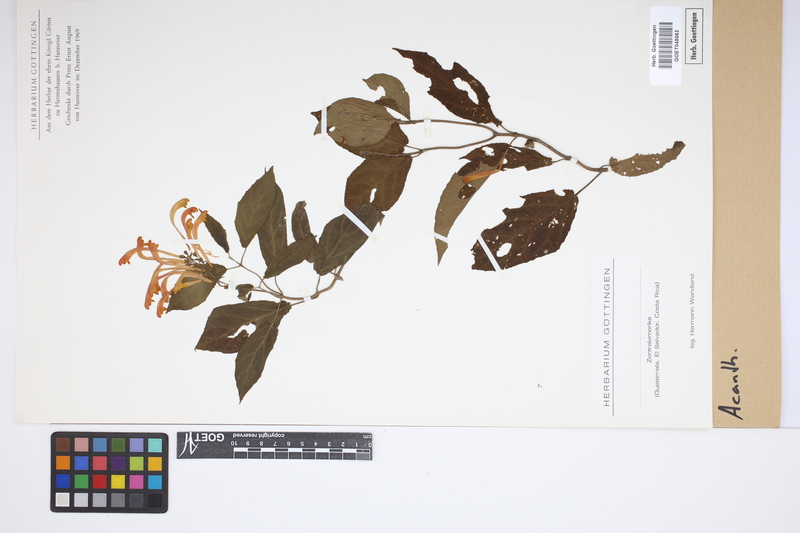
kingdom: Plantae
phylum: Tracheophyta
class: Magnoliopsida
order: Lamiales
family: Acanthaceae
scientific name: Acanthaceae
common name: Acanthaceae
